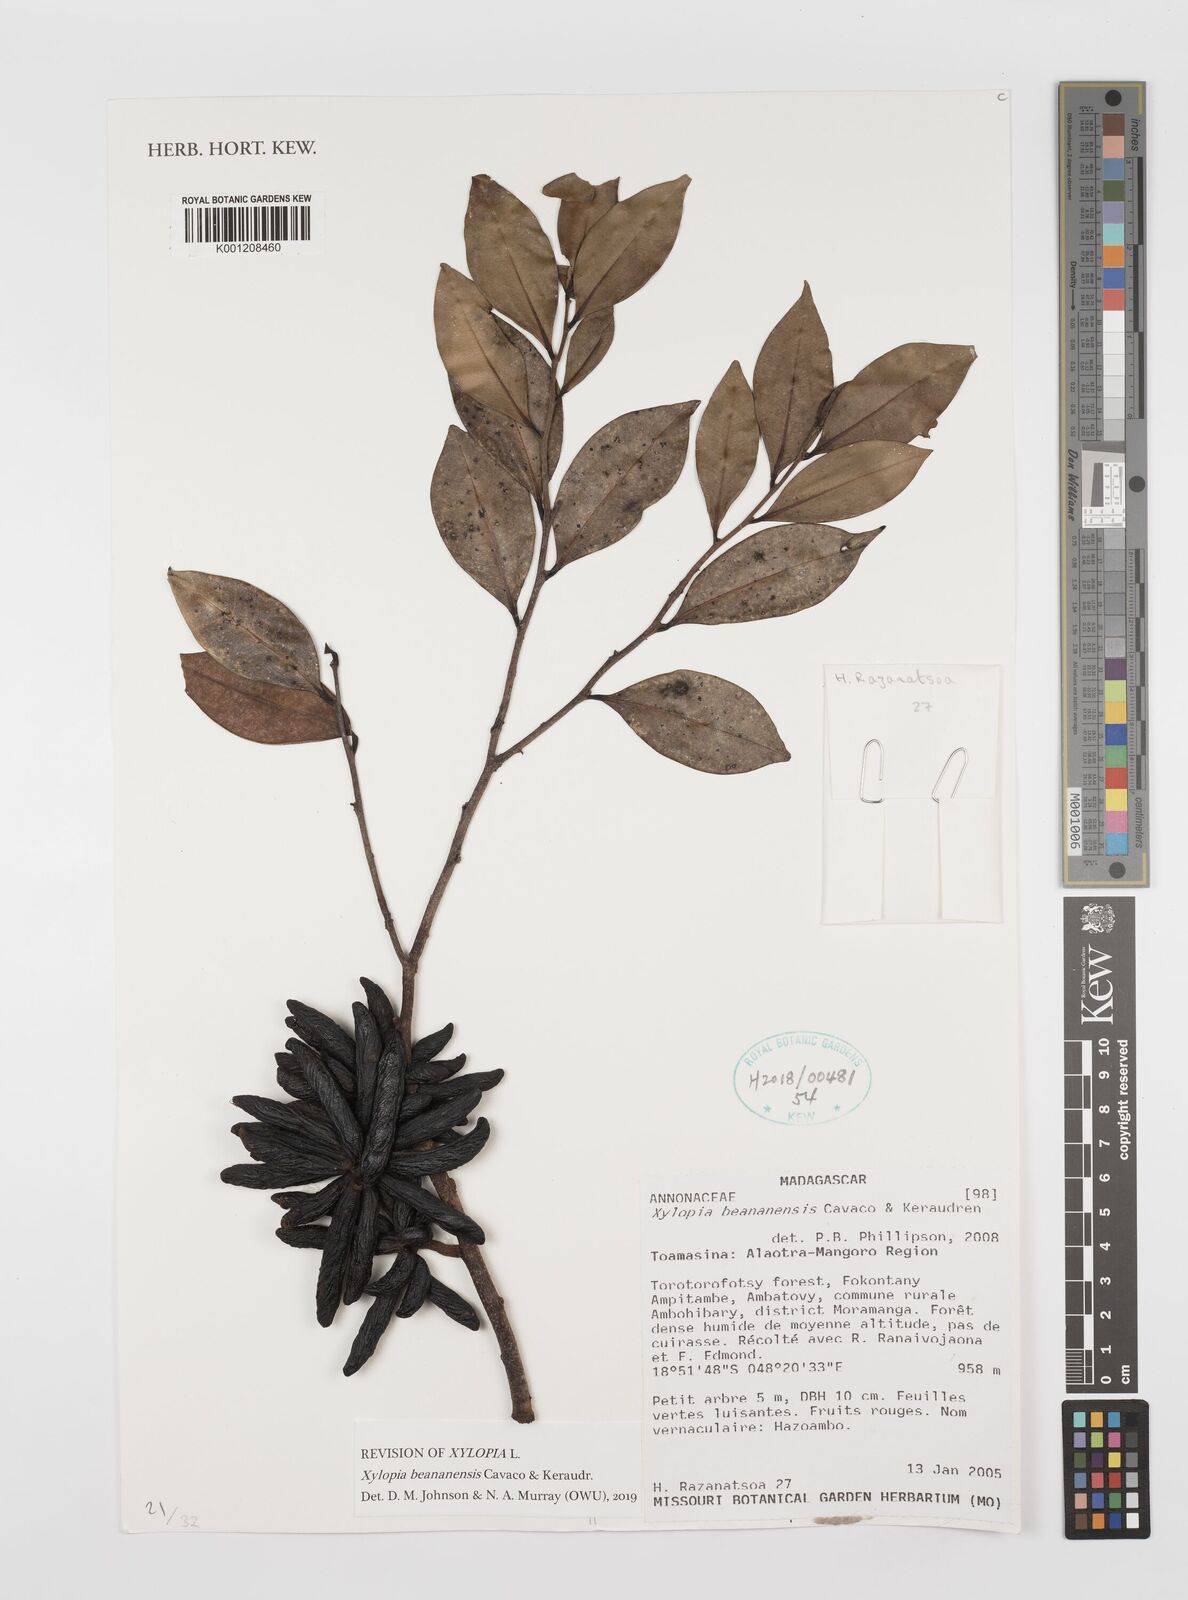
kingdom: Plantae
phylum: Tracheophyta
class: Magnoliopsida
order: Magnoliales
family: Annonaceae
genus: Xylopia
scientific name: Xylopia beananensis
